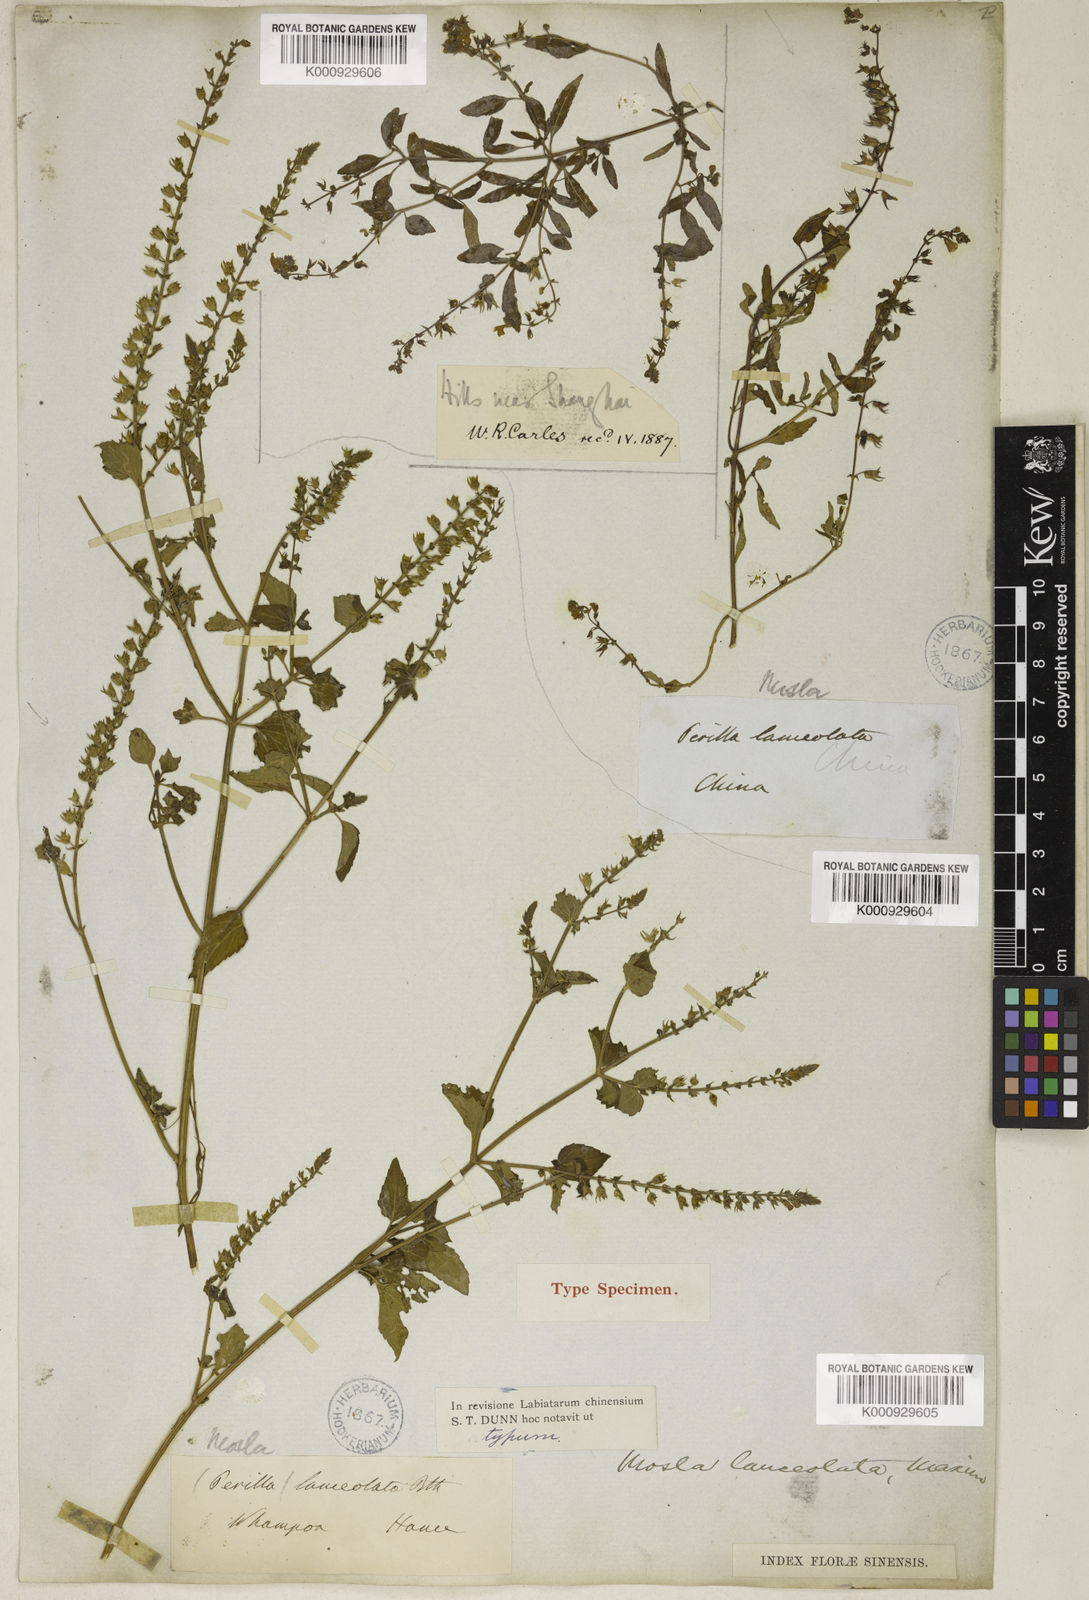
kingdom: Plantae
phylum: Tracheophyta
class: Magnoliopsida
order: Lamiales
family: Lamiaceae
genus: Mosla
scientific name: Mosla scabra
